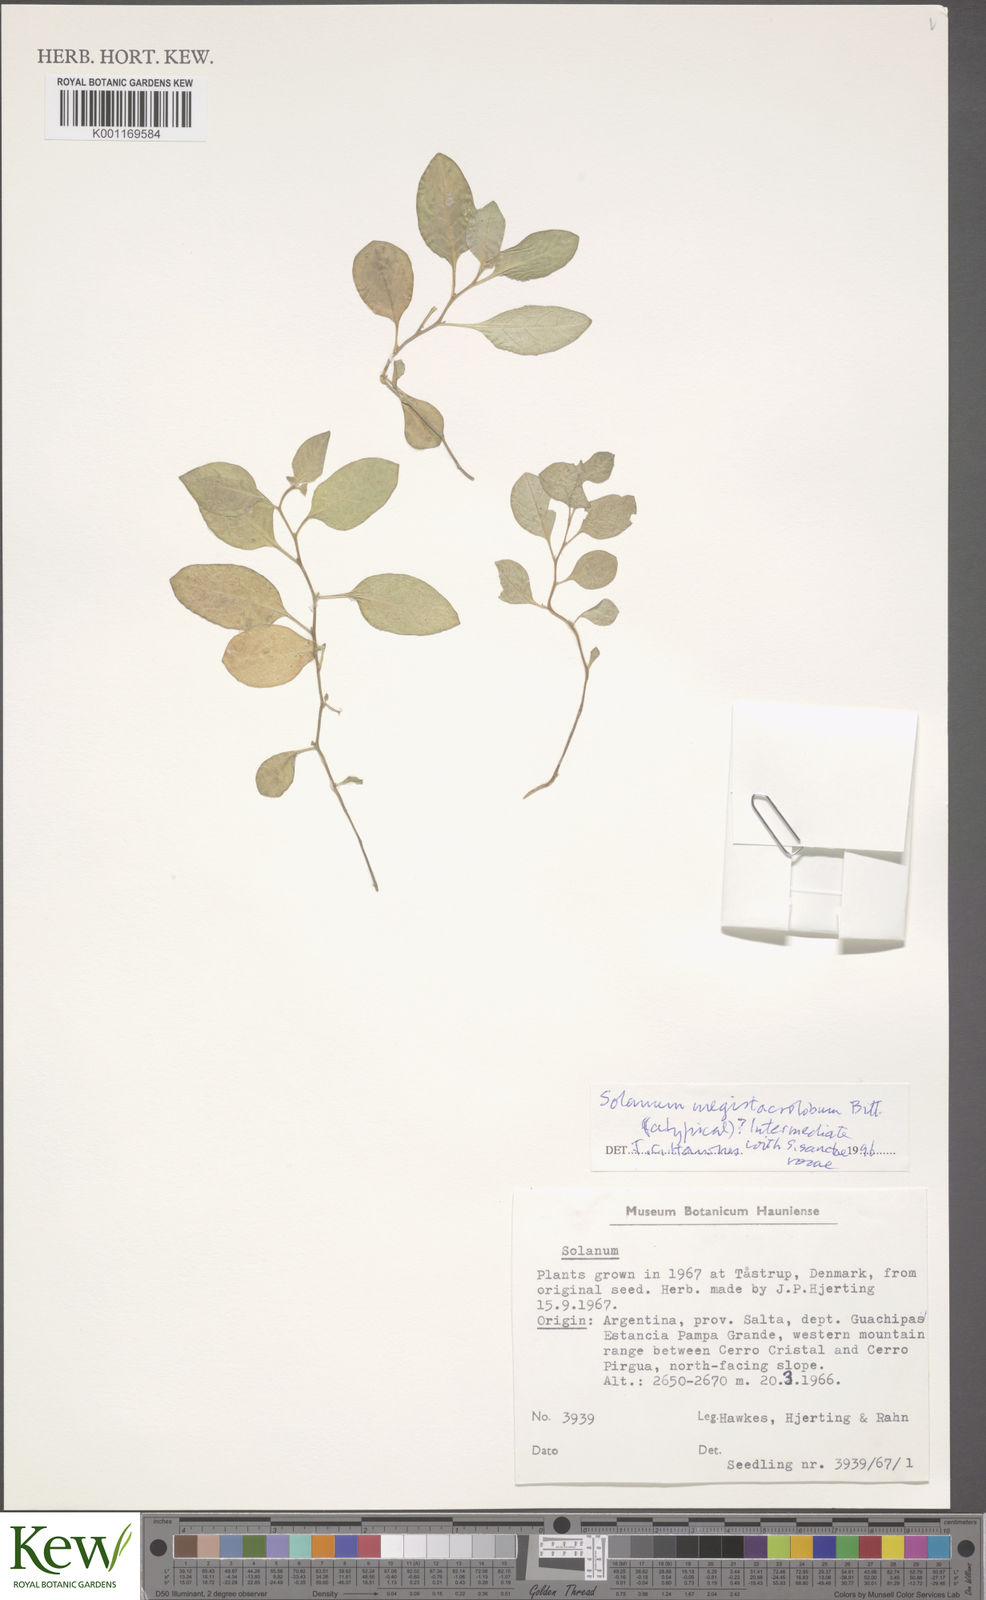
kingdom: Plantae
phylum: Tracheophyta
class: Magnoliopsida
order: Solanales
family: Solanaceae
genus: Solanum
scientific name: Solanum boliviense
